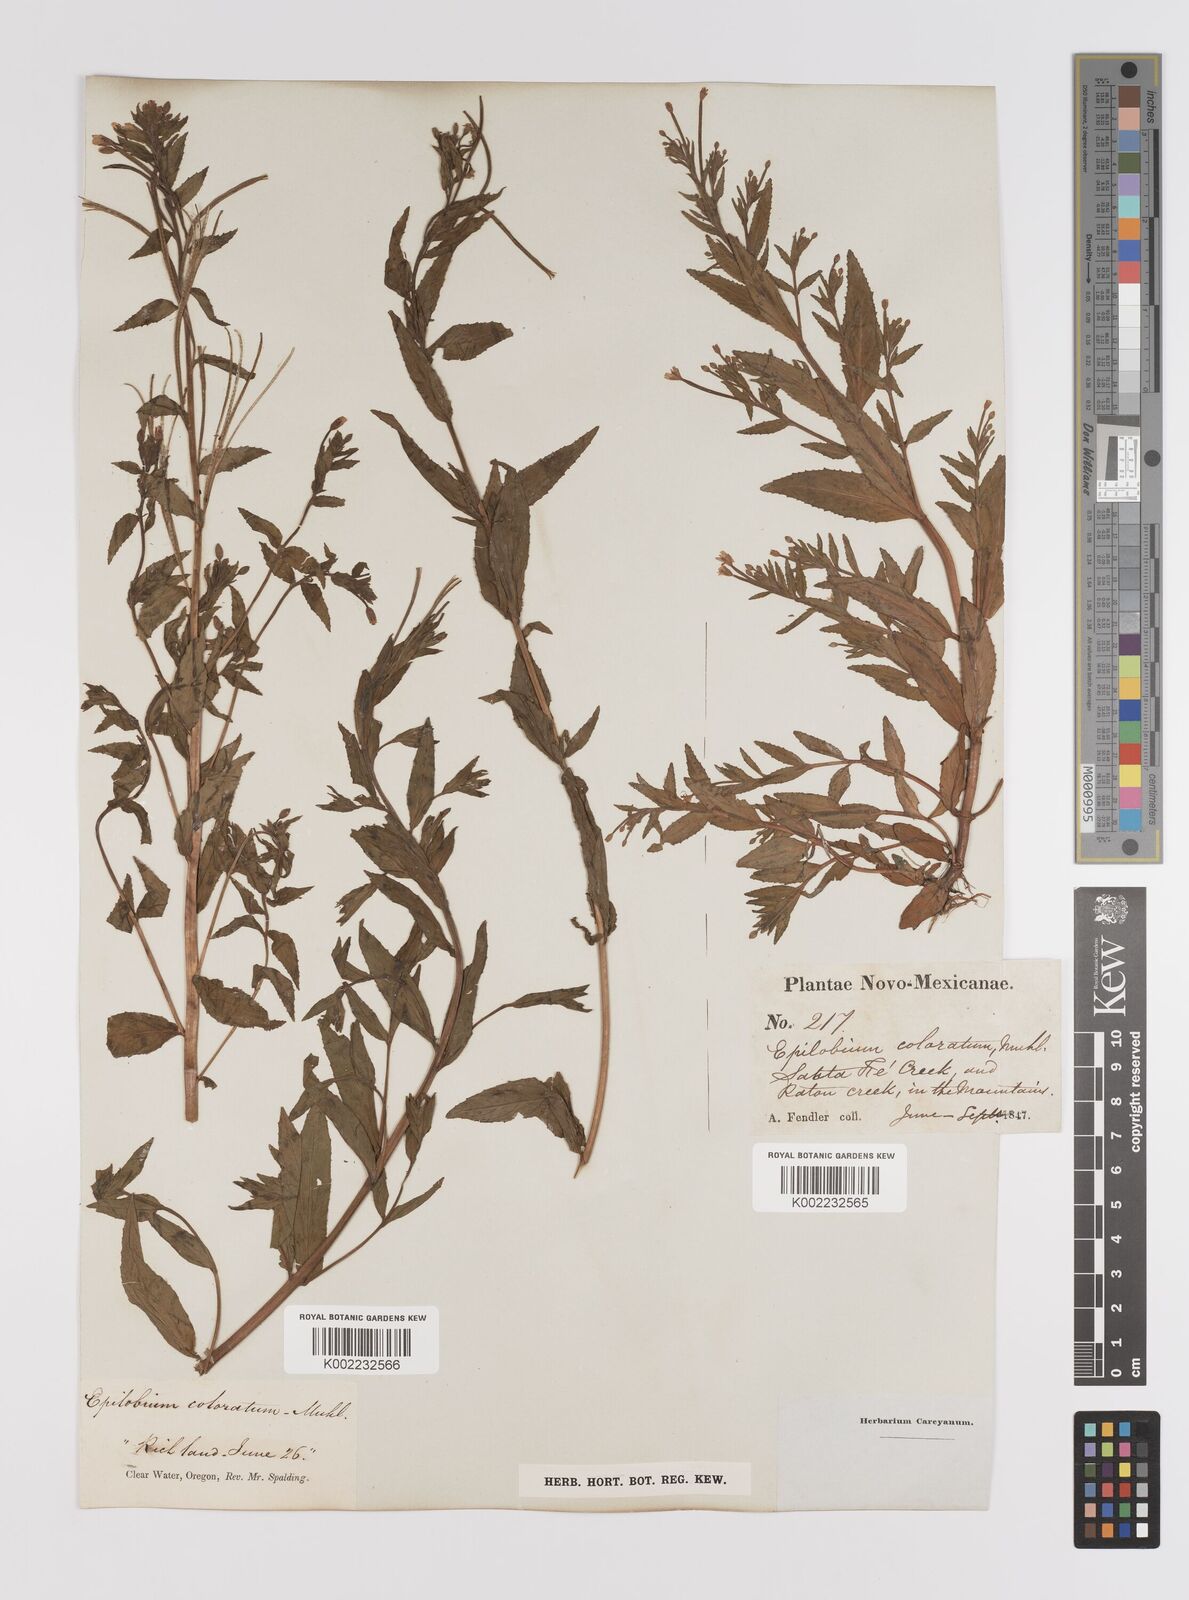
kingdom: Plantae
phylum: Tracheophyta
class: Magnoliopsida
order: Myrtales
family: Onagraceae
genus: Epilobium
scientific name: Epilobium coloratum
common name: Bronze willowherb
